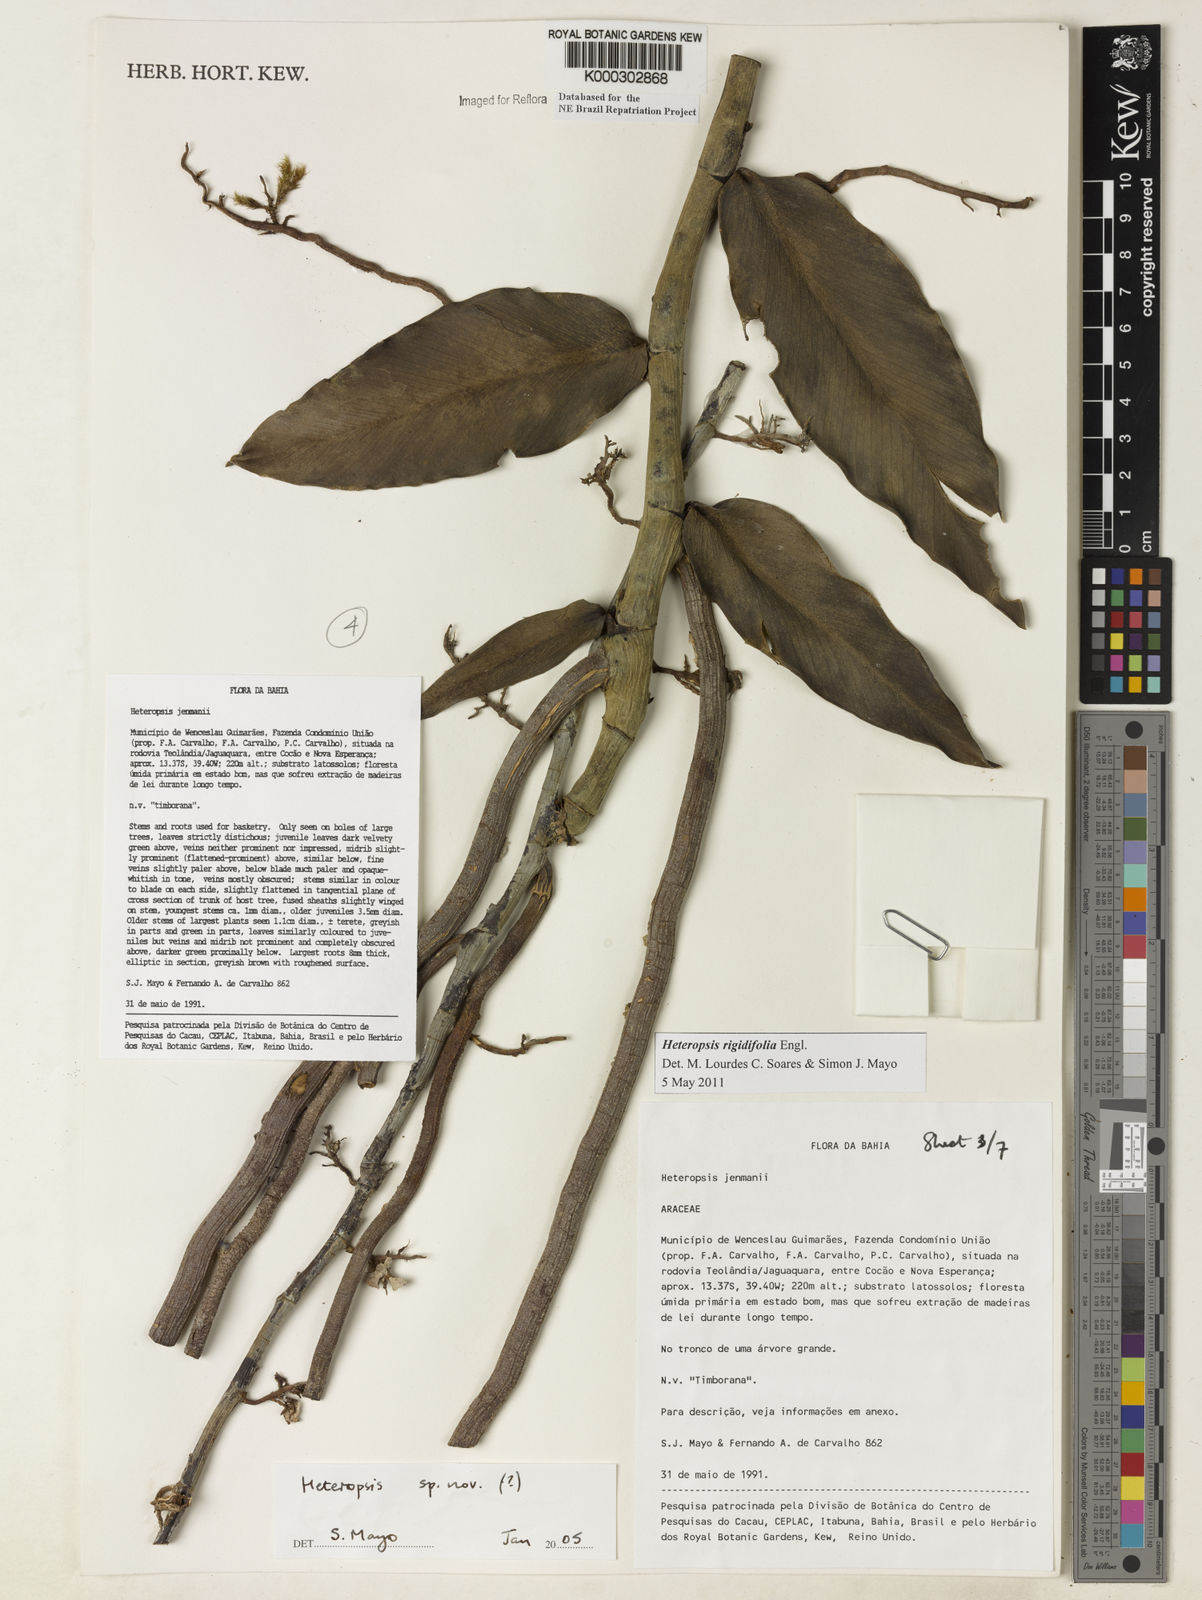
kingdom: Plantae
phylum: Tracheophyta
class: Liliopsida
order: Alismatales
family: Araceae
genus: Heteropsis
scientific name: Heteropsis
